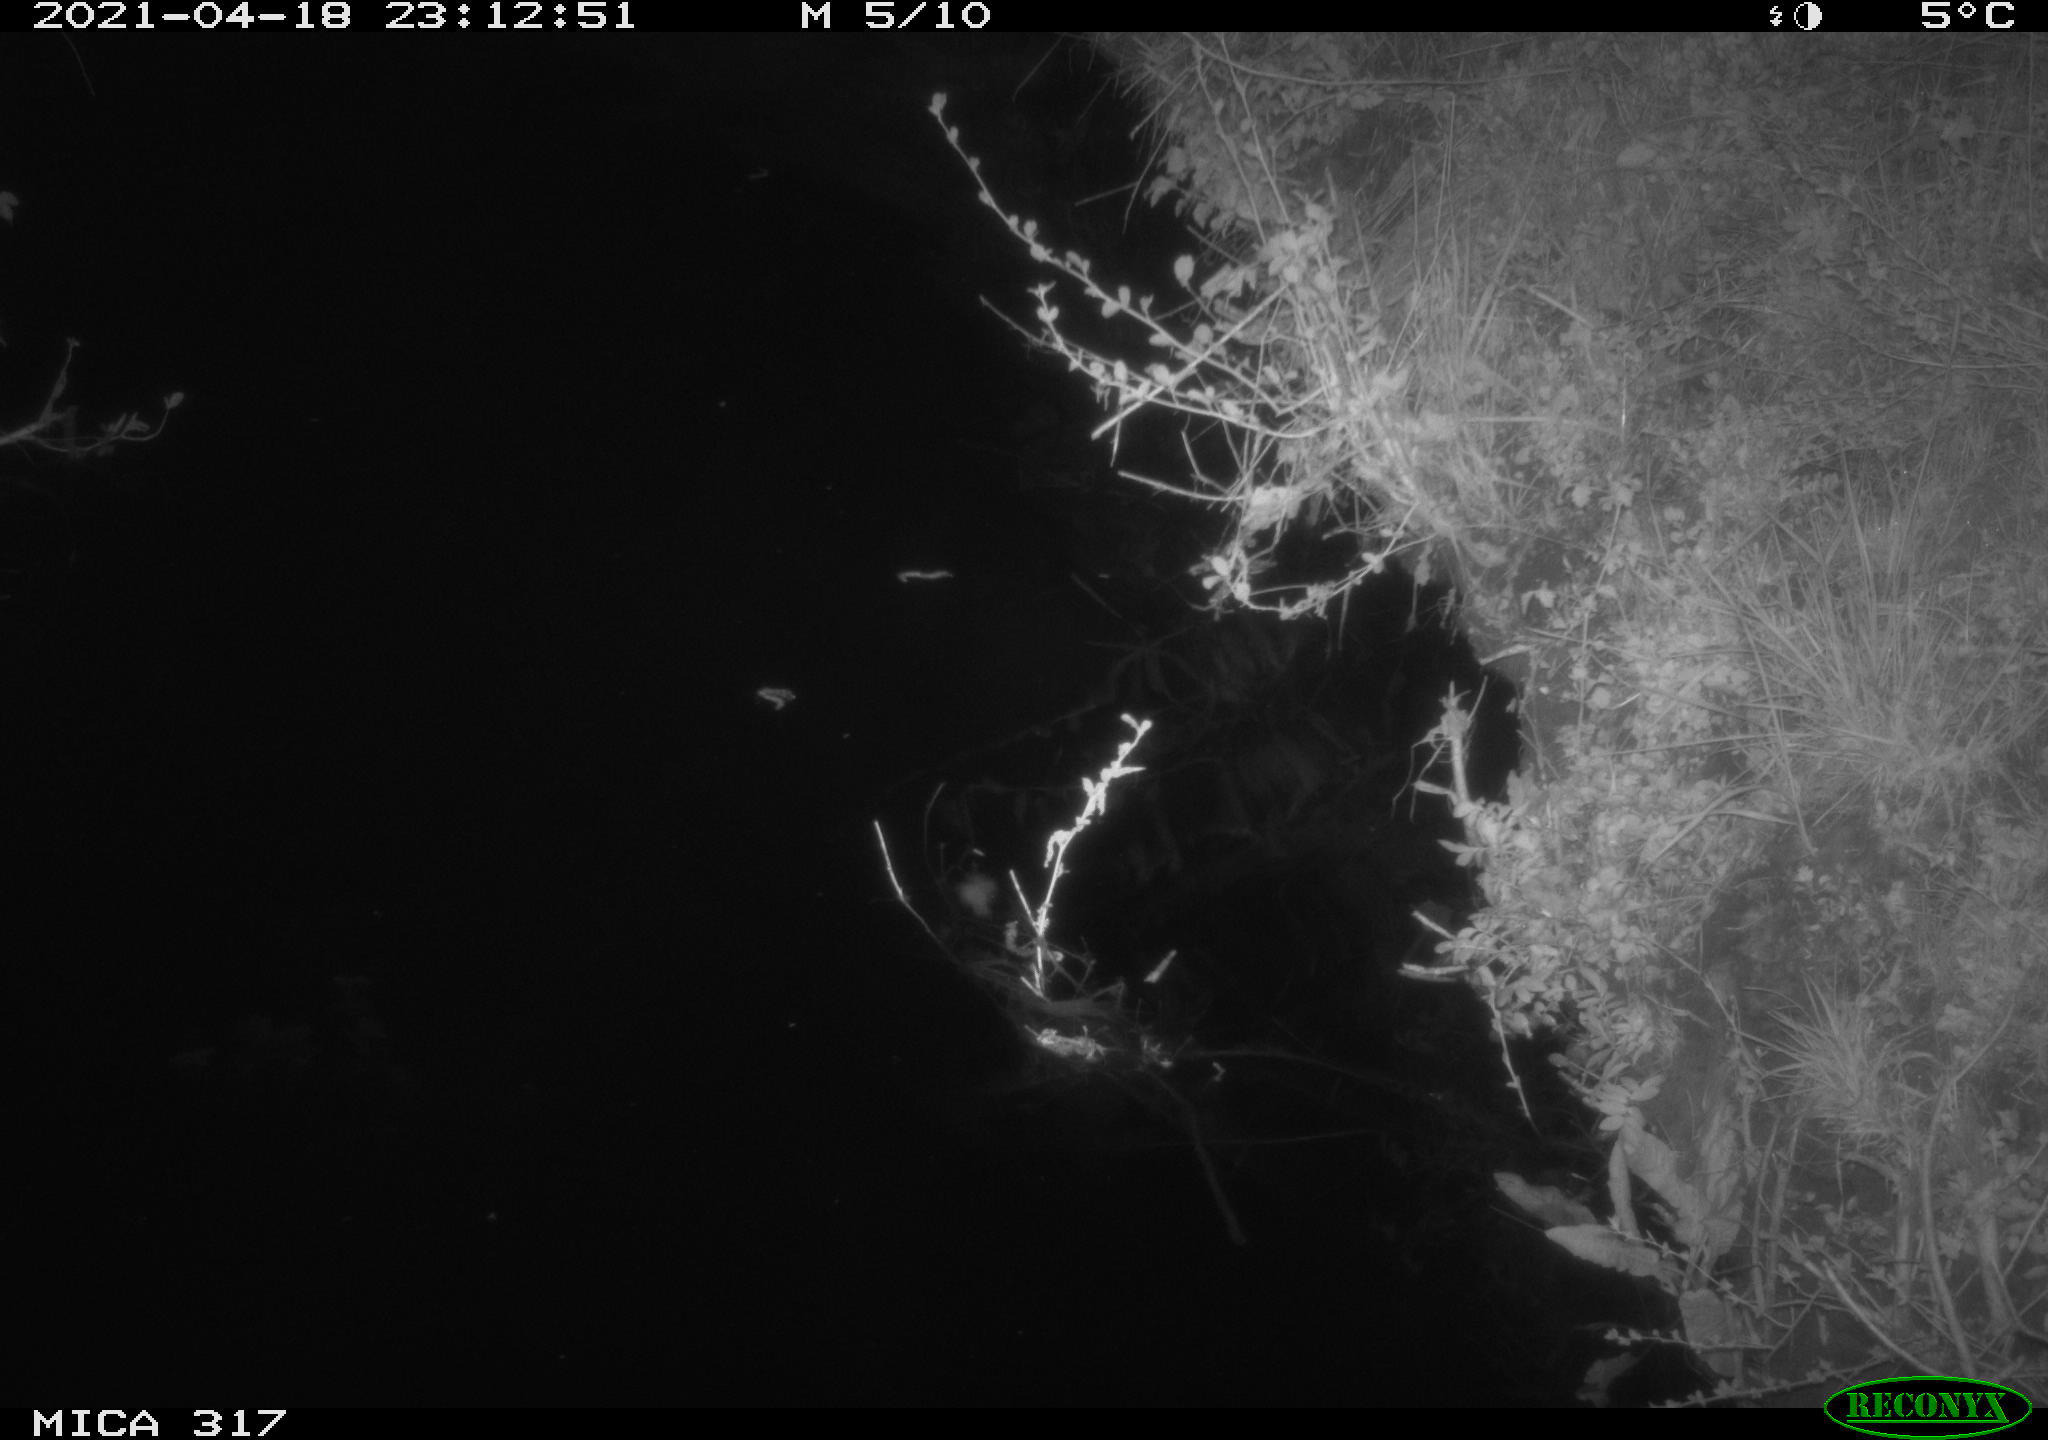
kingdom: Animalia
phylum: Chordata
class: Aves
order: Anseriformes
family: Anatidae
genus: Anas
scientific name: Anas platyrhynchos
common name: Mallard
